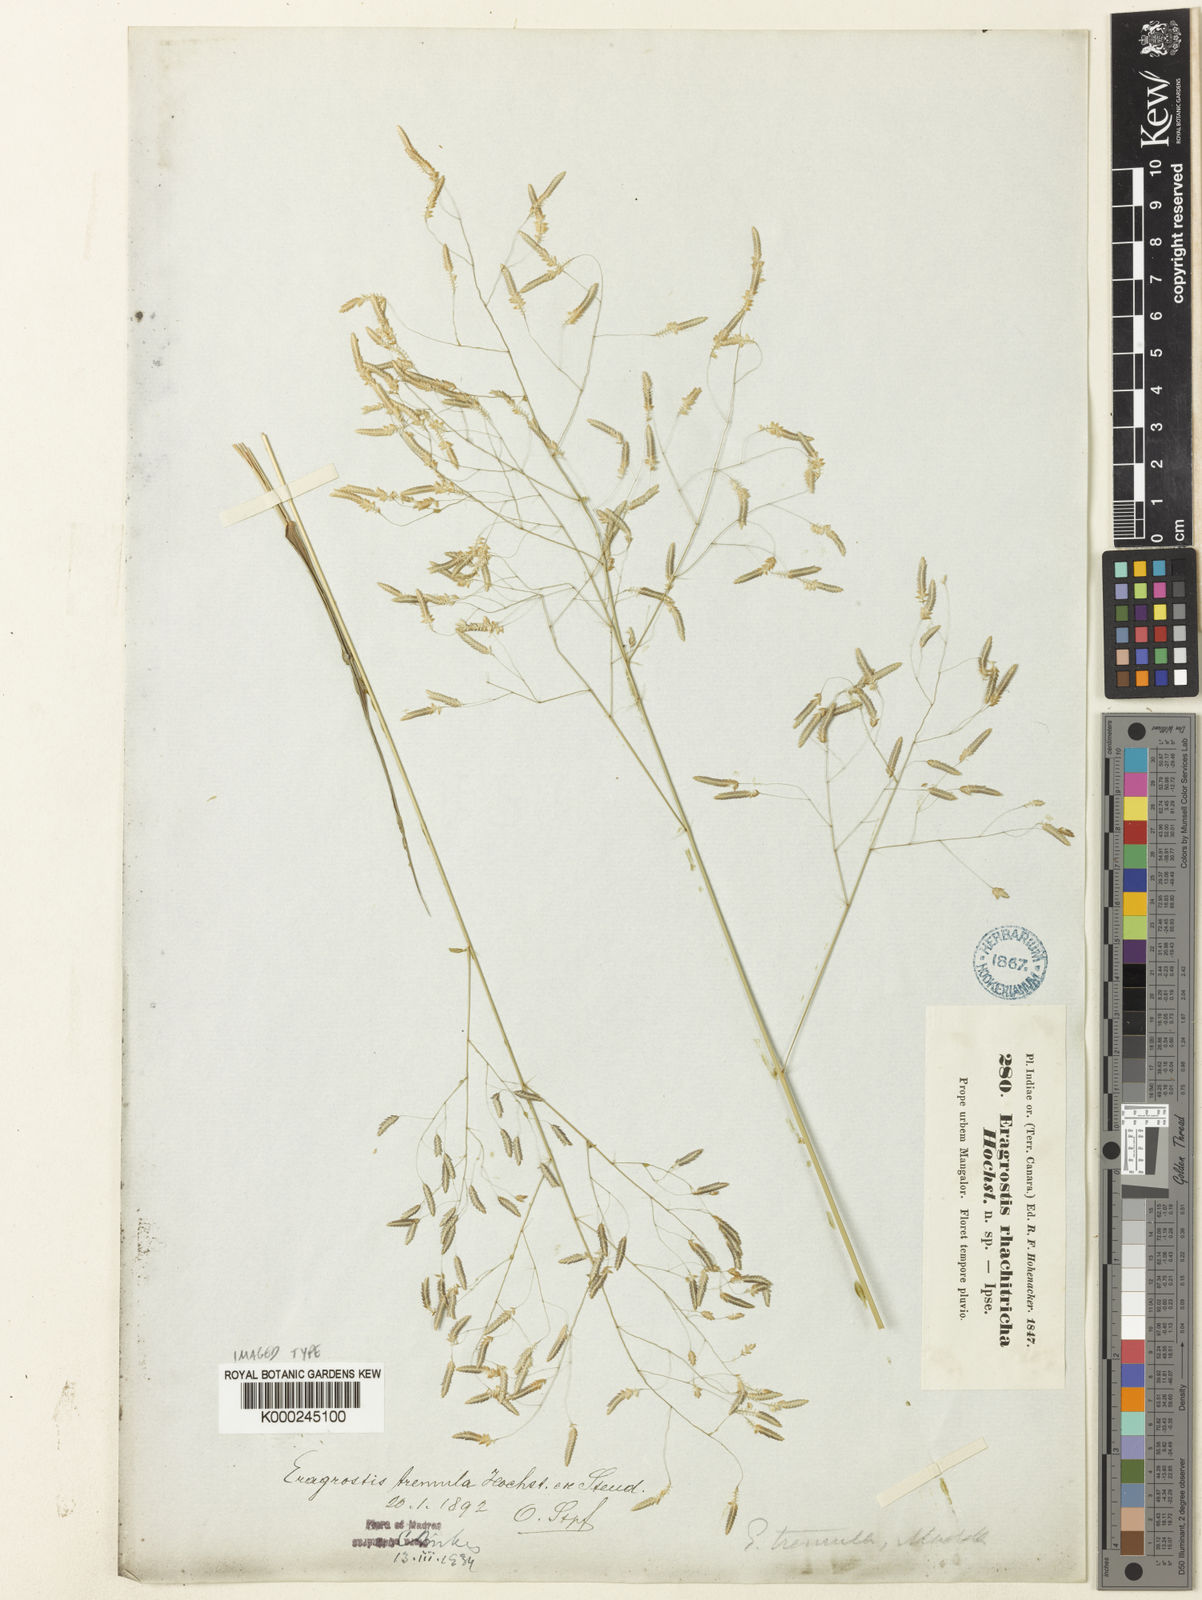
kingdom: Plantae
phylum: Tracheophyta
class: Liliopsida
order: Poales
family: Poaceae
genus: Eragrostis
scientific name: Eragrostis tremula
